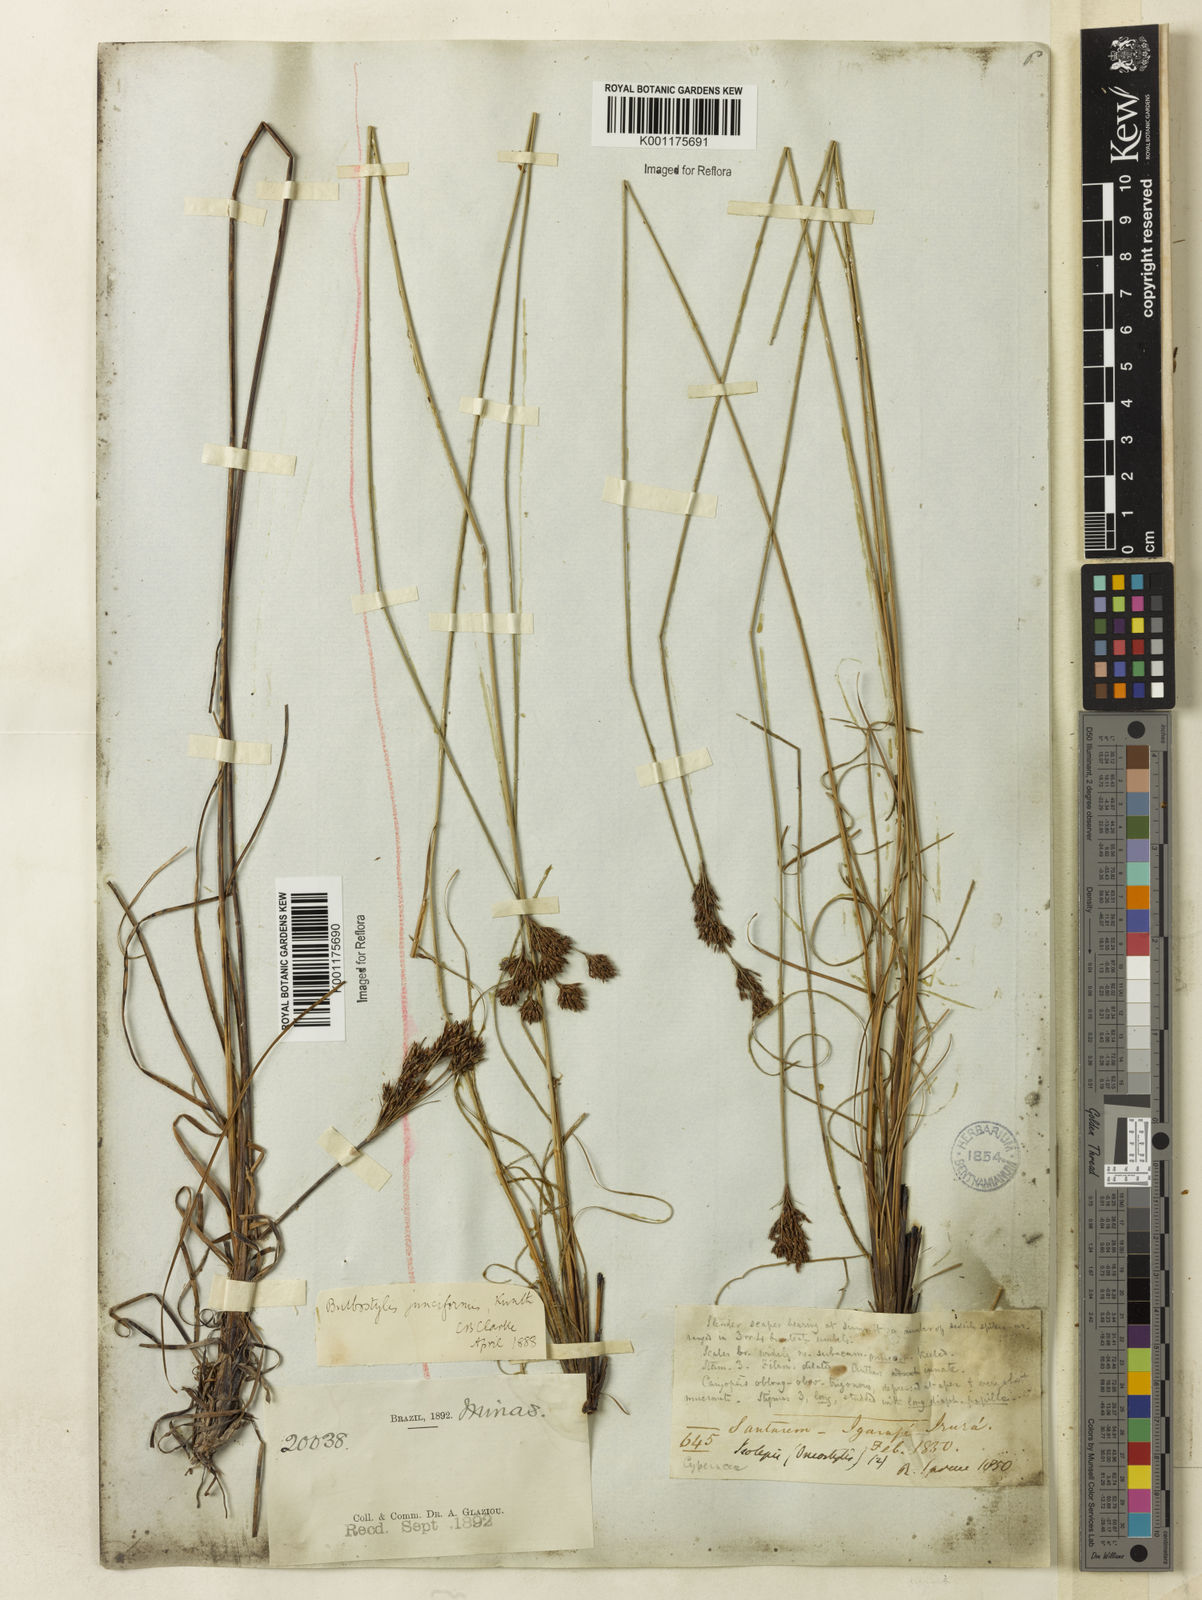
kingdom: Plantae
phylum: Tracheophyta
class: Liliopsida
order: Poales
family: Cyperaceae
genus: Bulbostylis
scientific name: Bulbostylis junciformis
